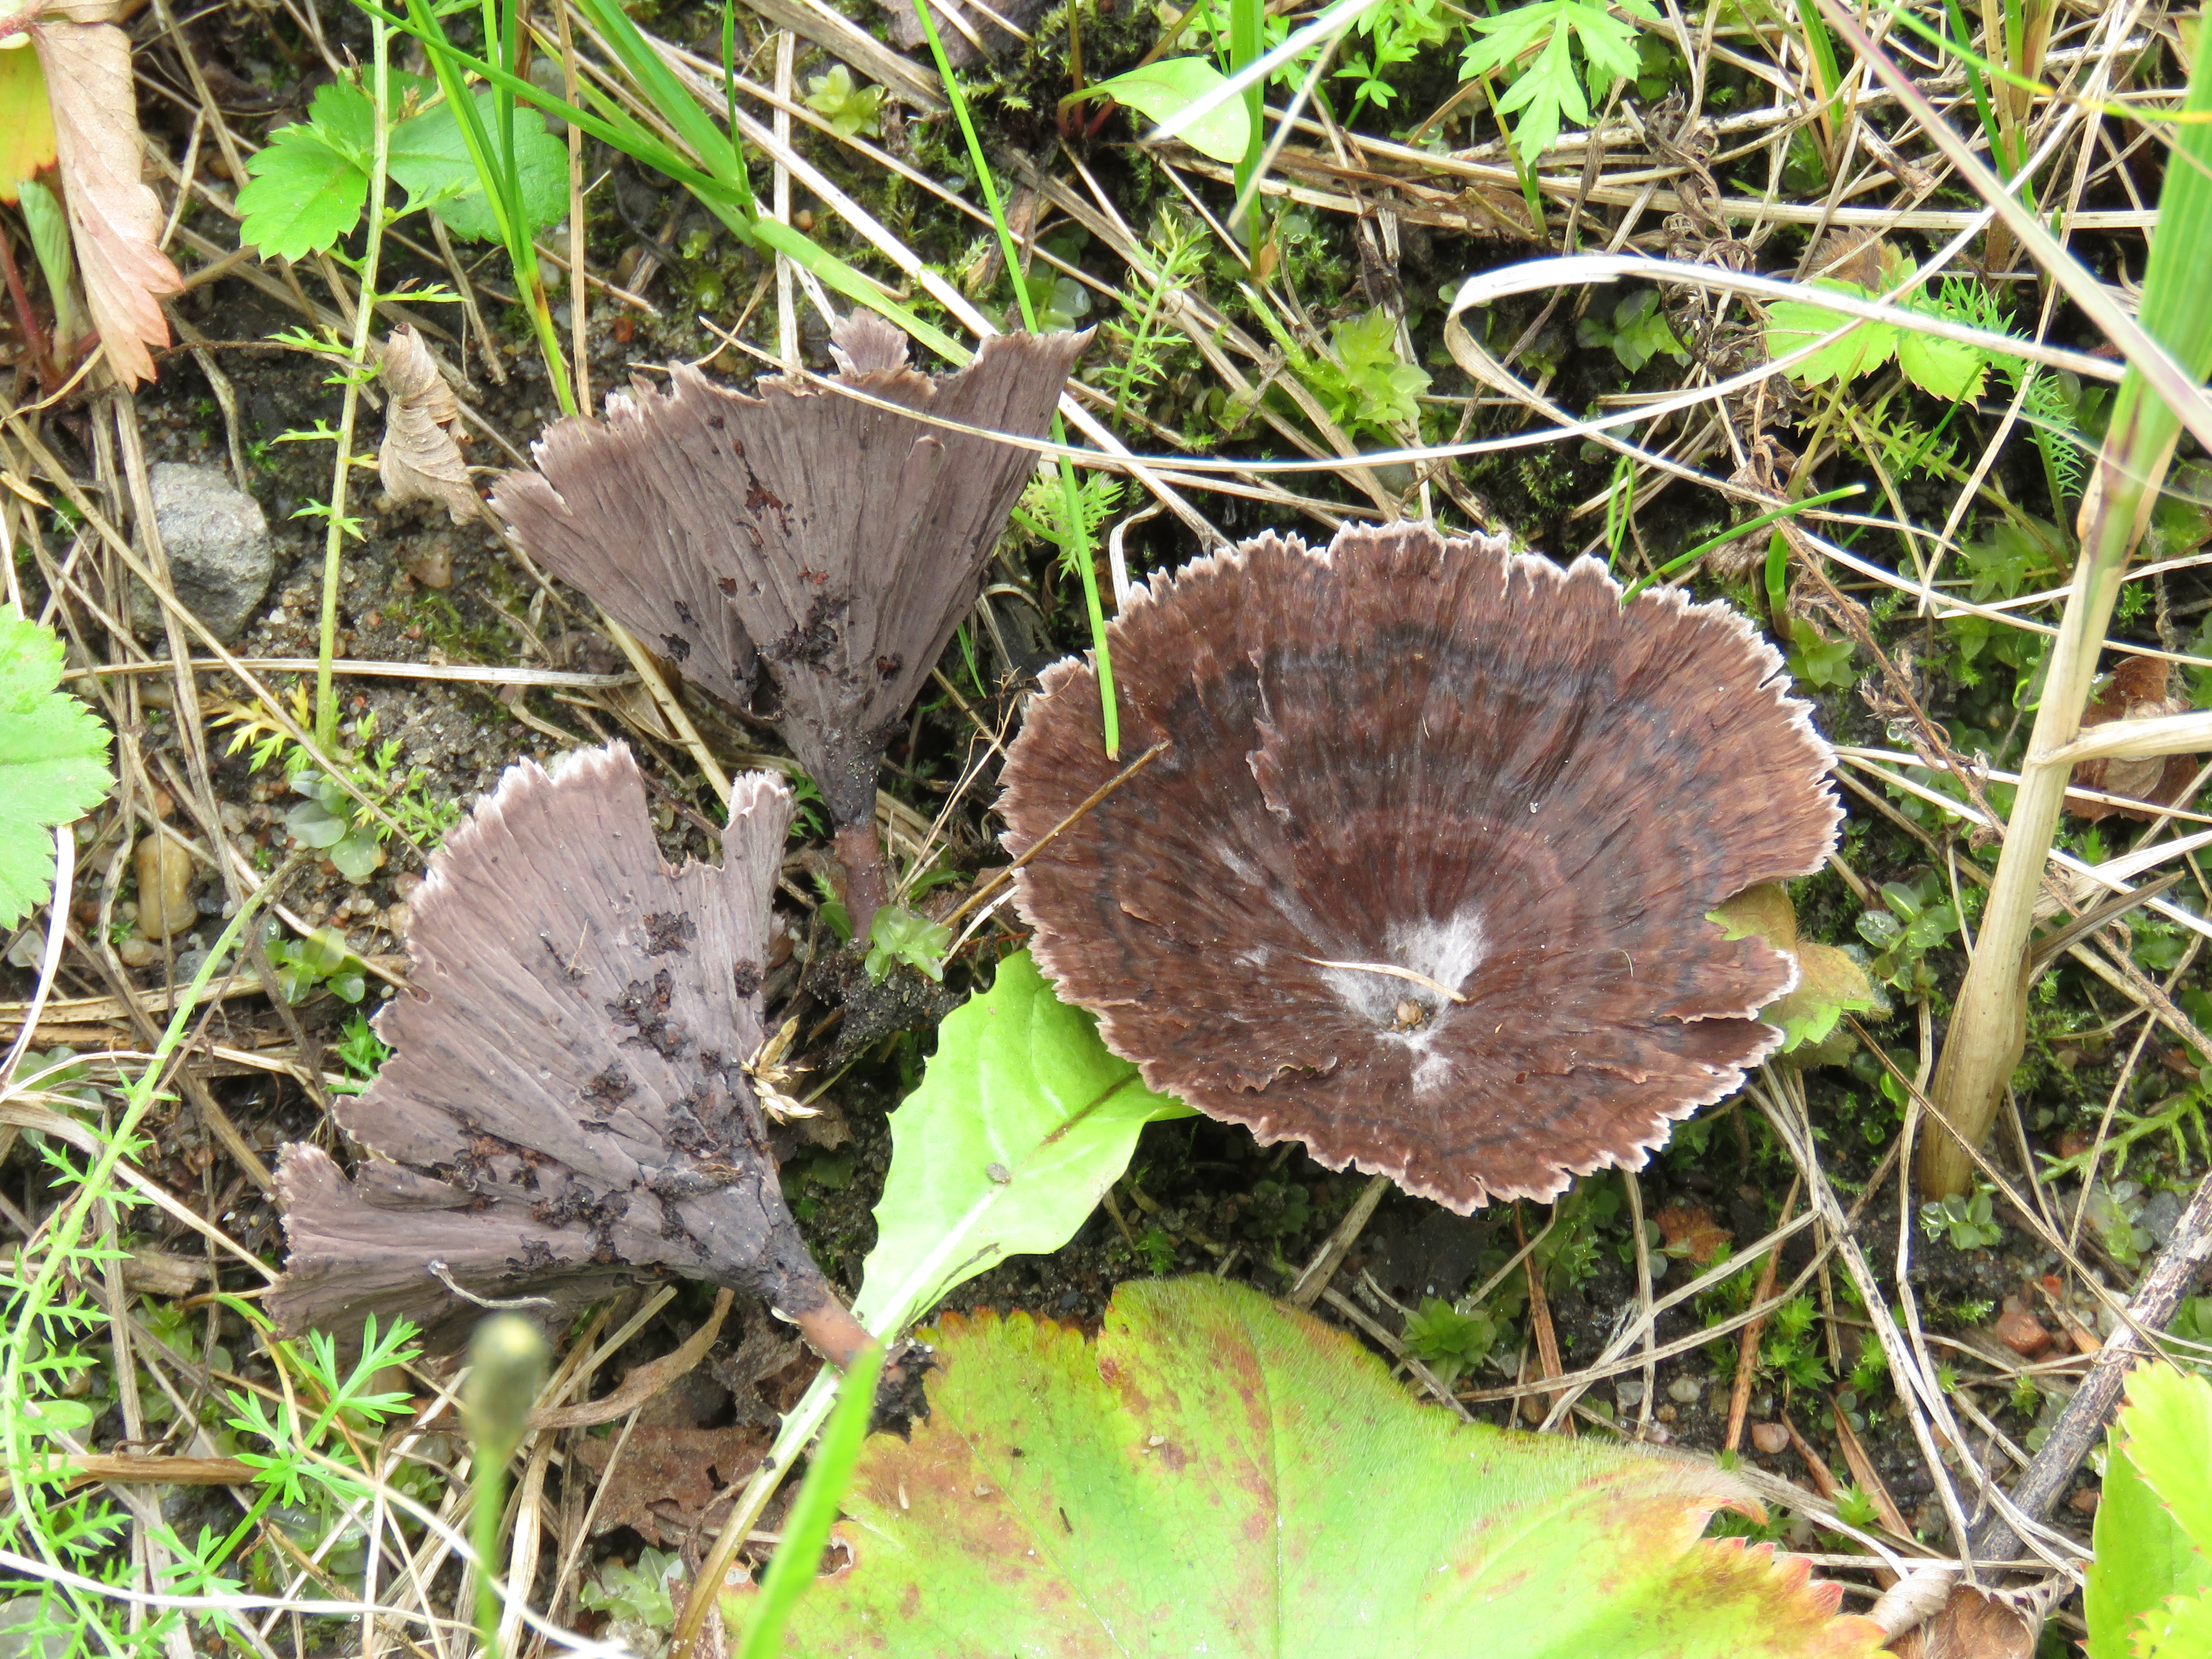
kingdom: Fungi
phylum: Basidiomycota
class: Agaricomycetes
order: Thelephorales
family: Thelephoraceae
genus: Thelephora
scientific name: Thelephora caryophyllea
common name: Carnation earthfan
